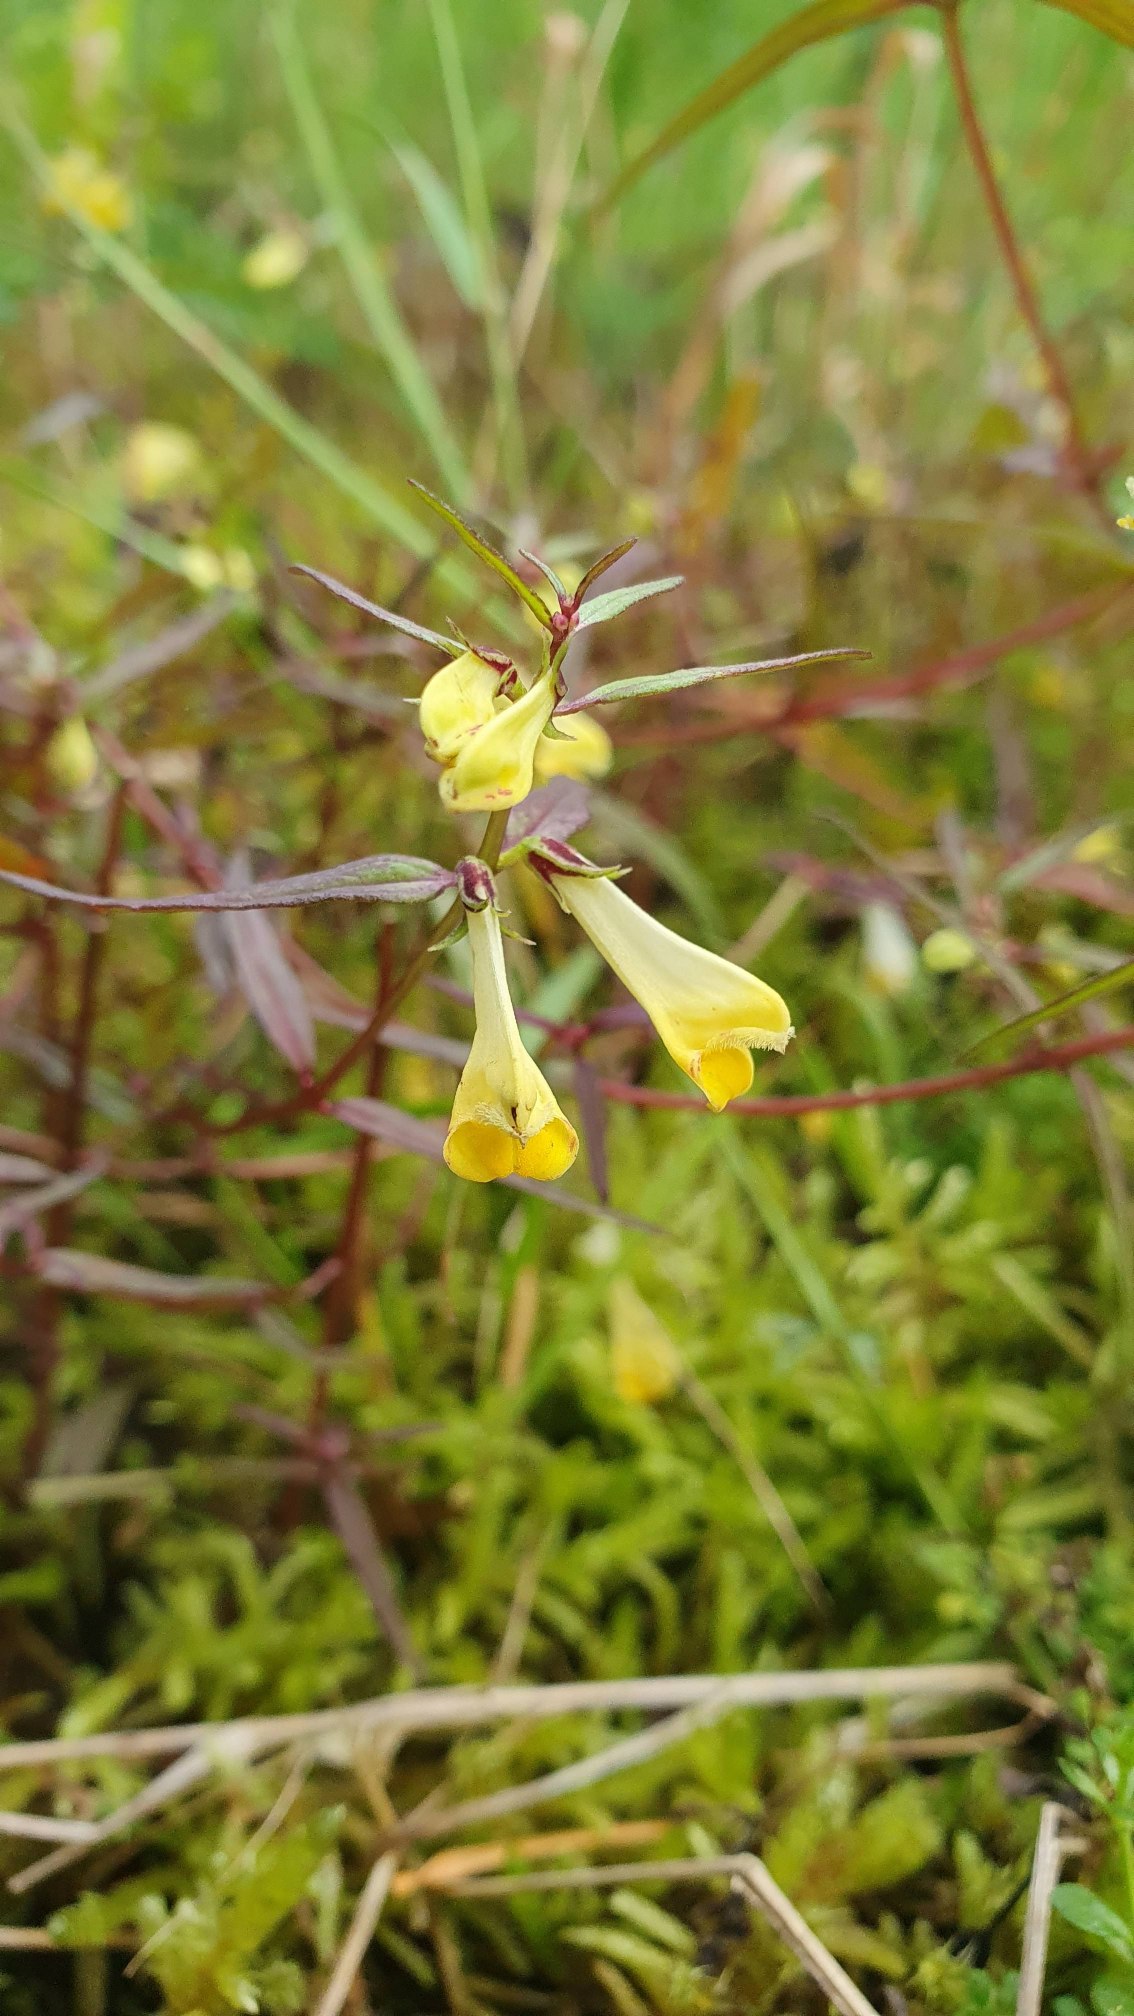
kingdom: Plantae
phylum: Tracheophyta
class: Magnoliopsida
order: Lamiales
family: Orobanchaceae
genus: Melampyrum
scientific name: Melampyrum pratense
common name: Almindelig kohvede
